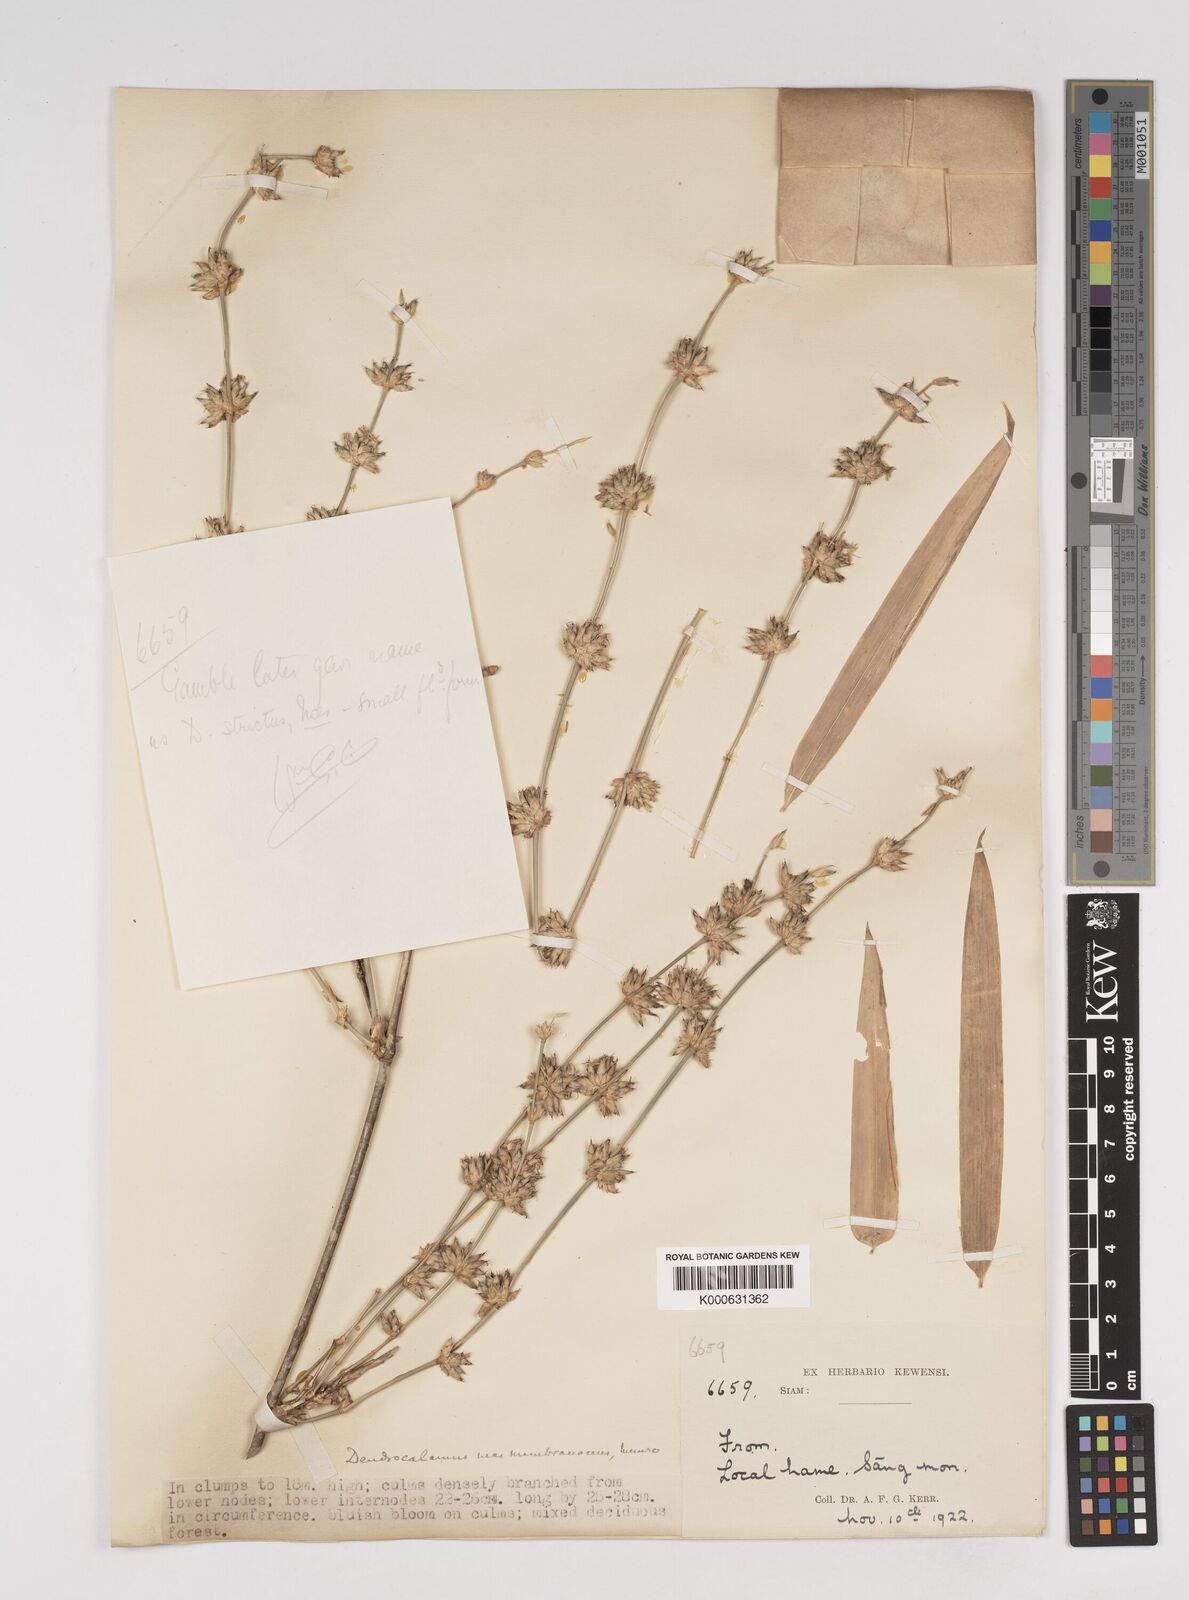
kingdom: Plantae
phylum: Tracheophyta
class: Liliopsida
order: Poales
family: Poaceae
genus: Dendrocalamus
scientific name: Dendrocalamus membranaceus
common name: White bamboo
